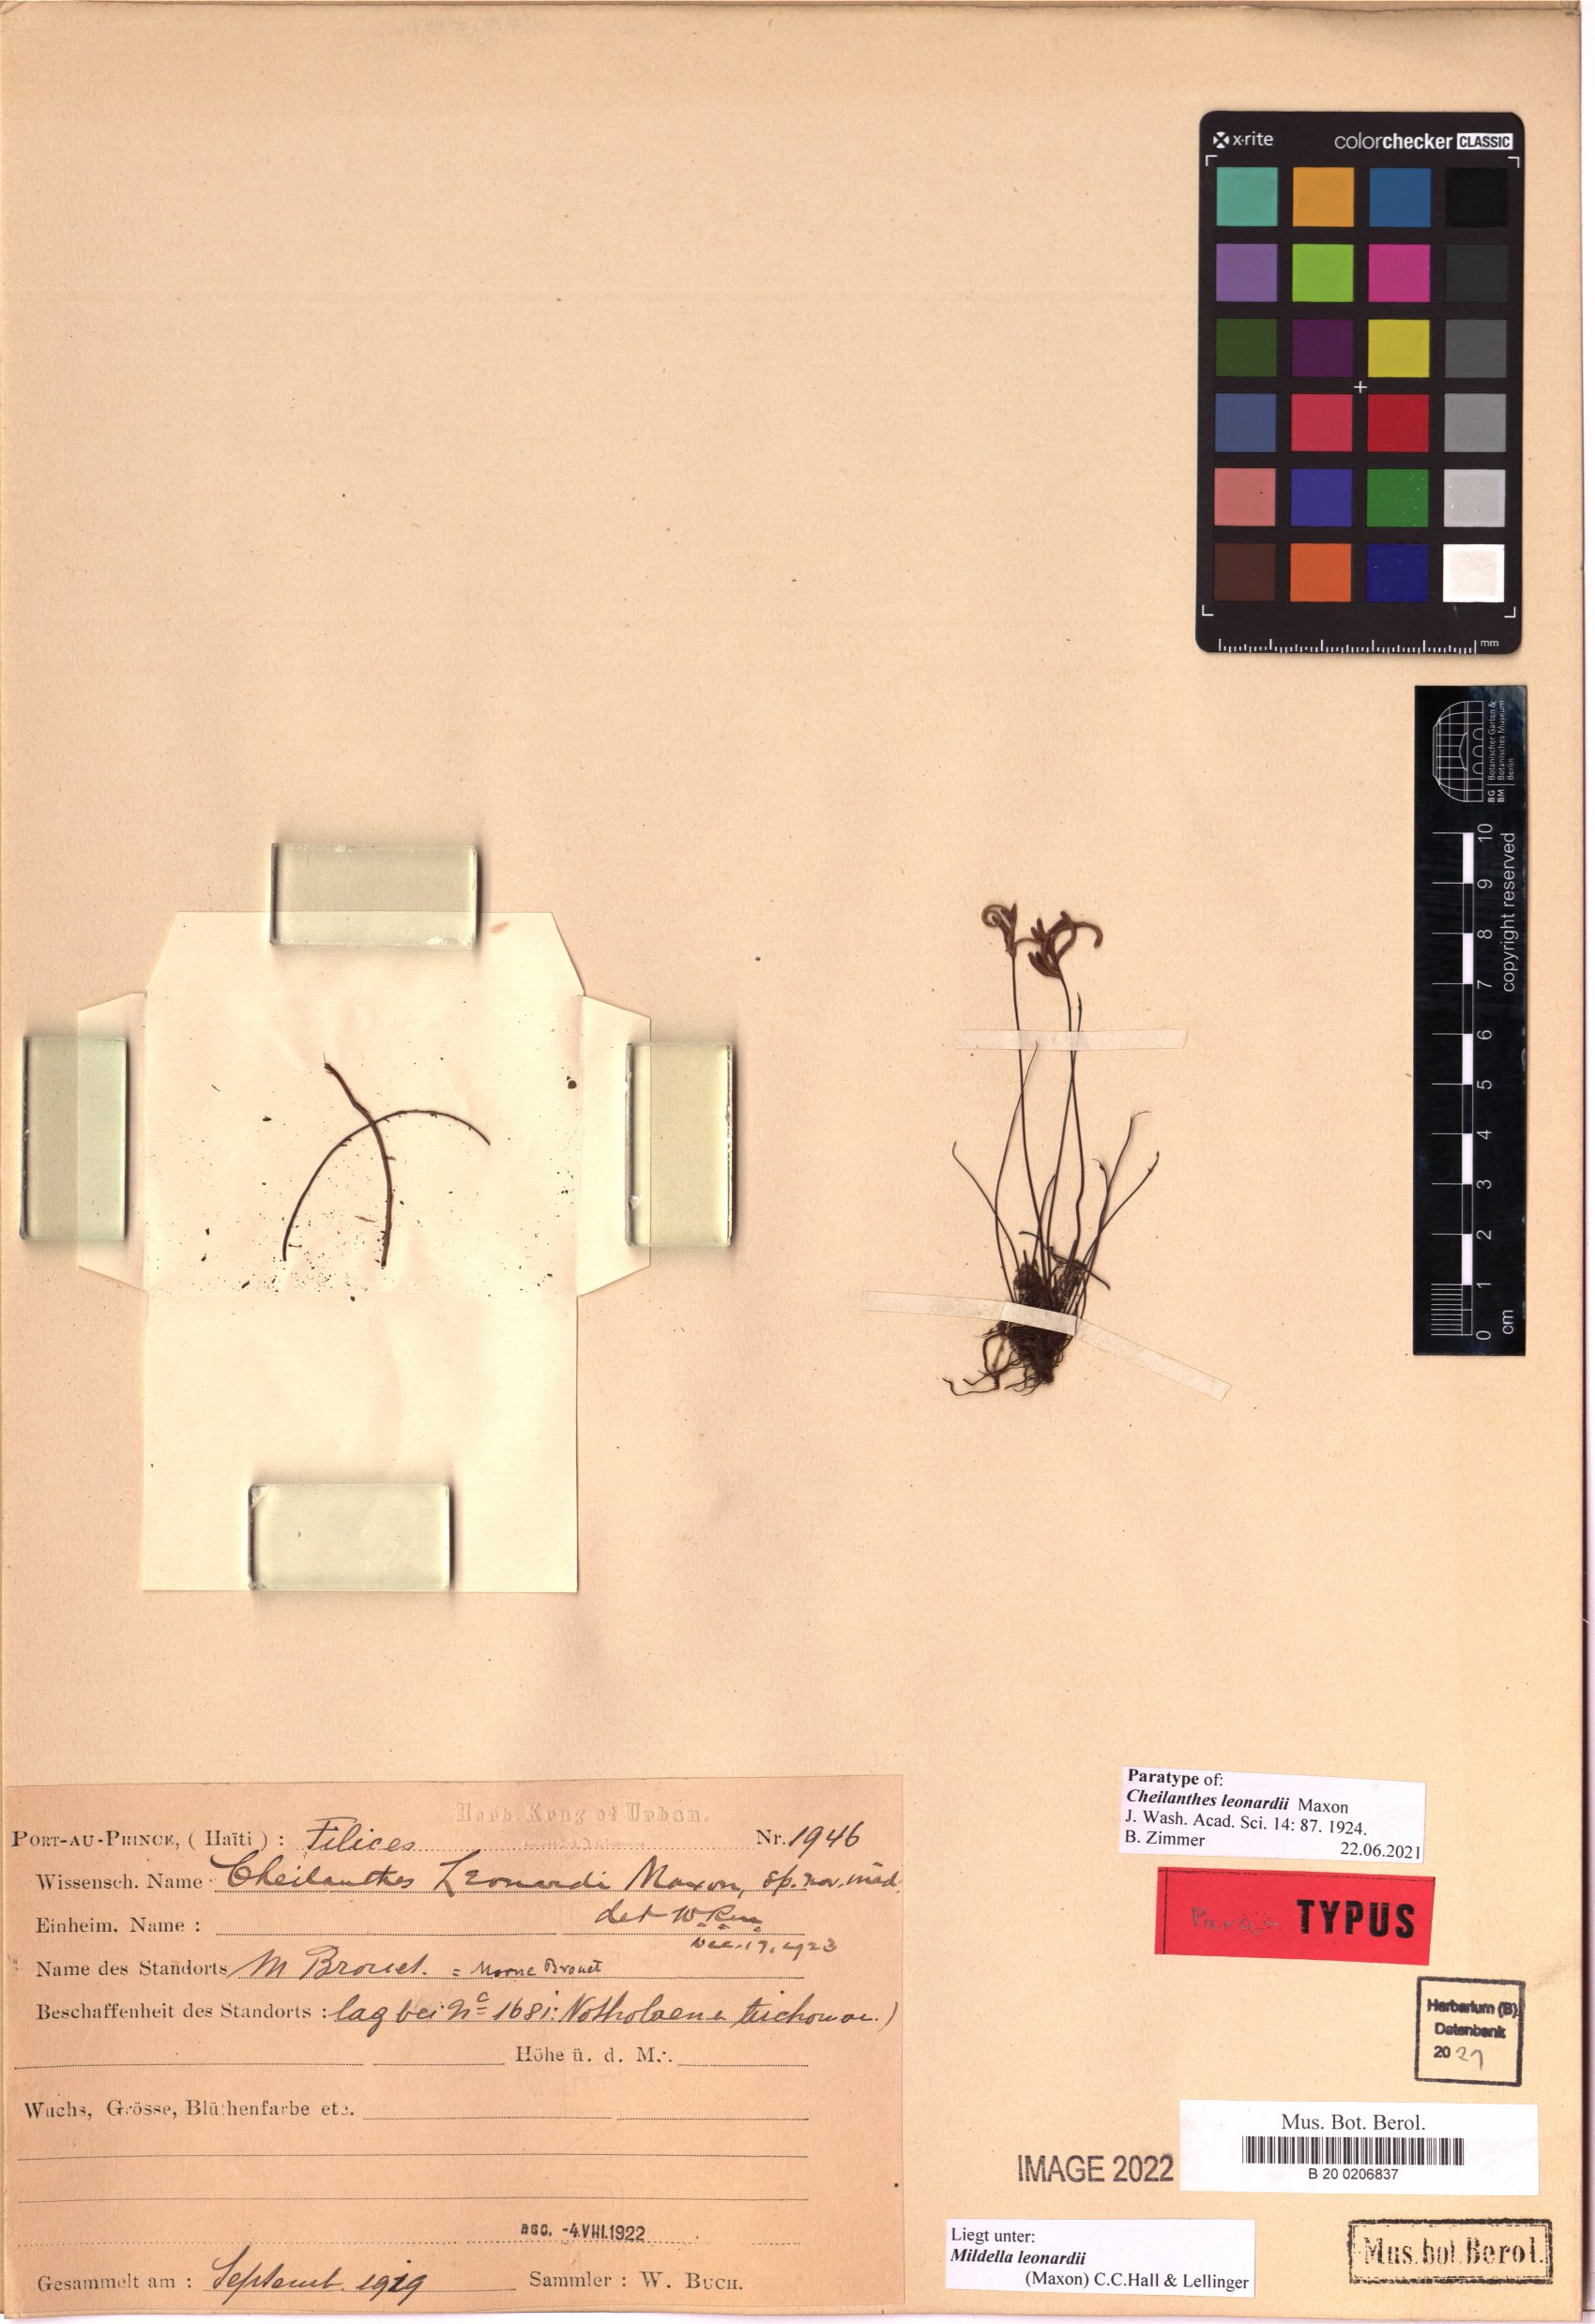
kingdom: Plantae
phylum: Tracheophyta
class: Polypodiopsida
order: Polypodiales
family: Pteridaceae
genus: Mildella
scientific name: Mildella leonardii
